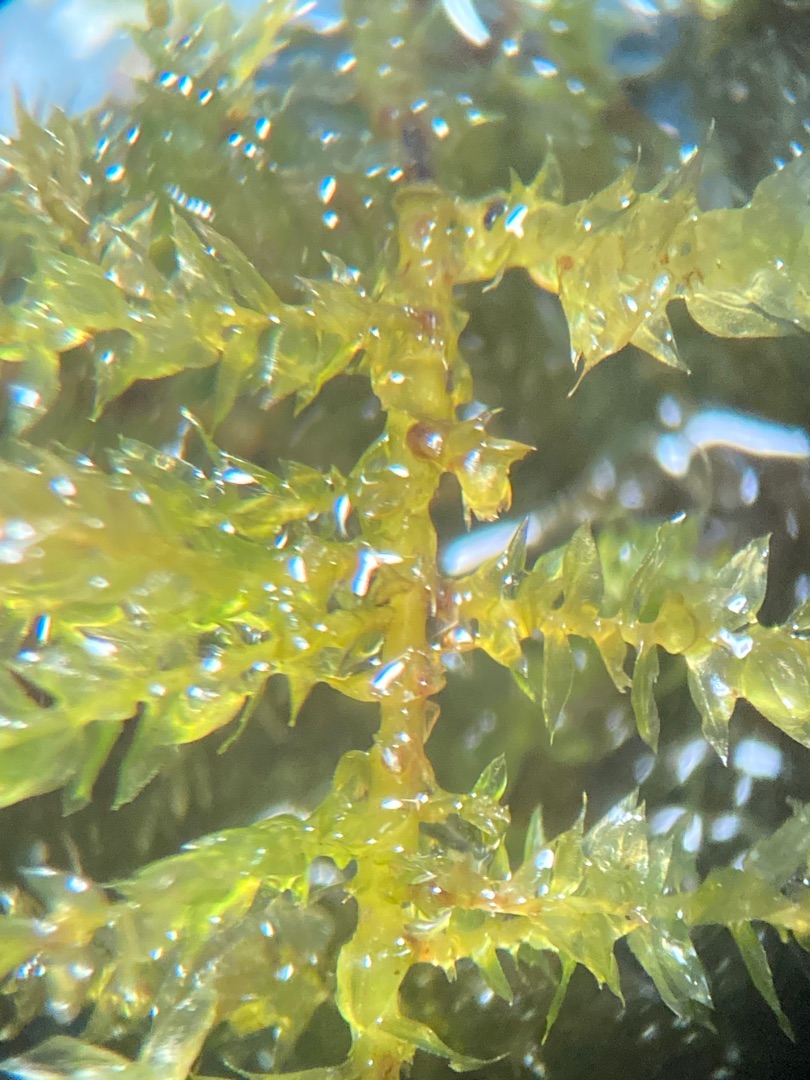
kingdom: Plantae
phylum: Bryophyta
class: Bryopsida
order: Hypnales
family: Brachytheciaceae
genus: Oxyrrhynchium
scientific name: Oxyrrhynchium hians
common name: Ler-vortetand
